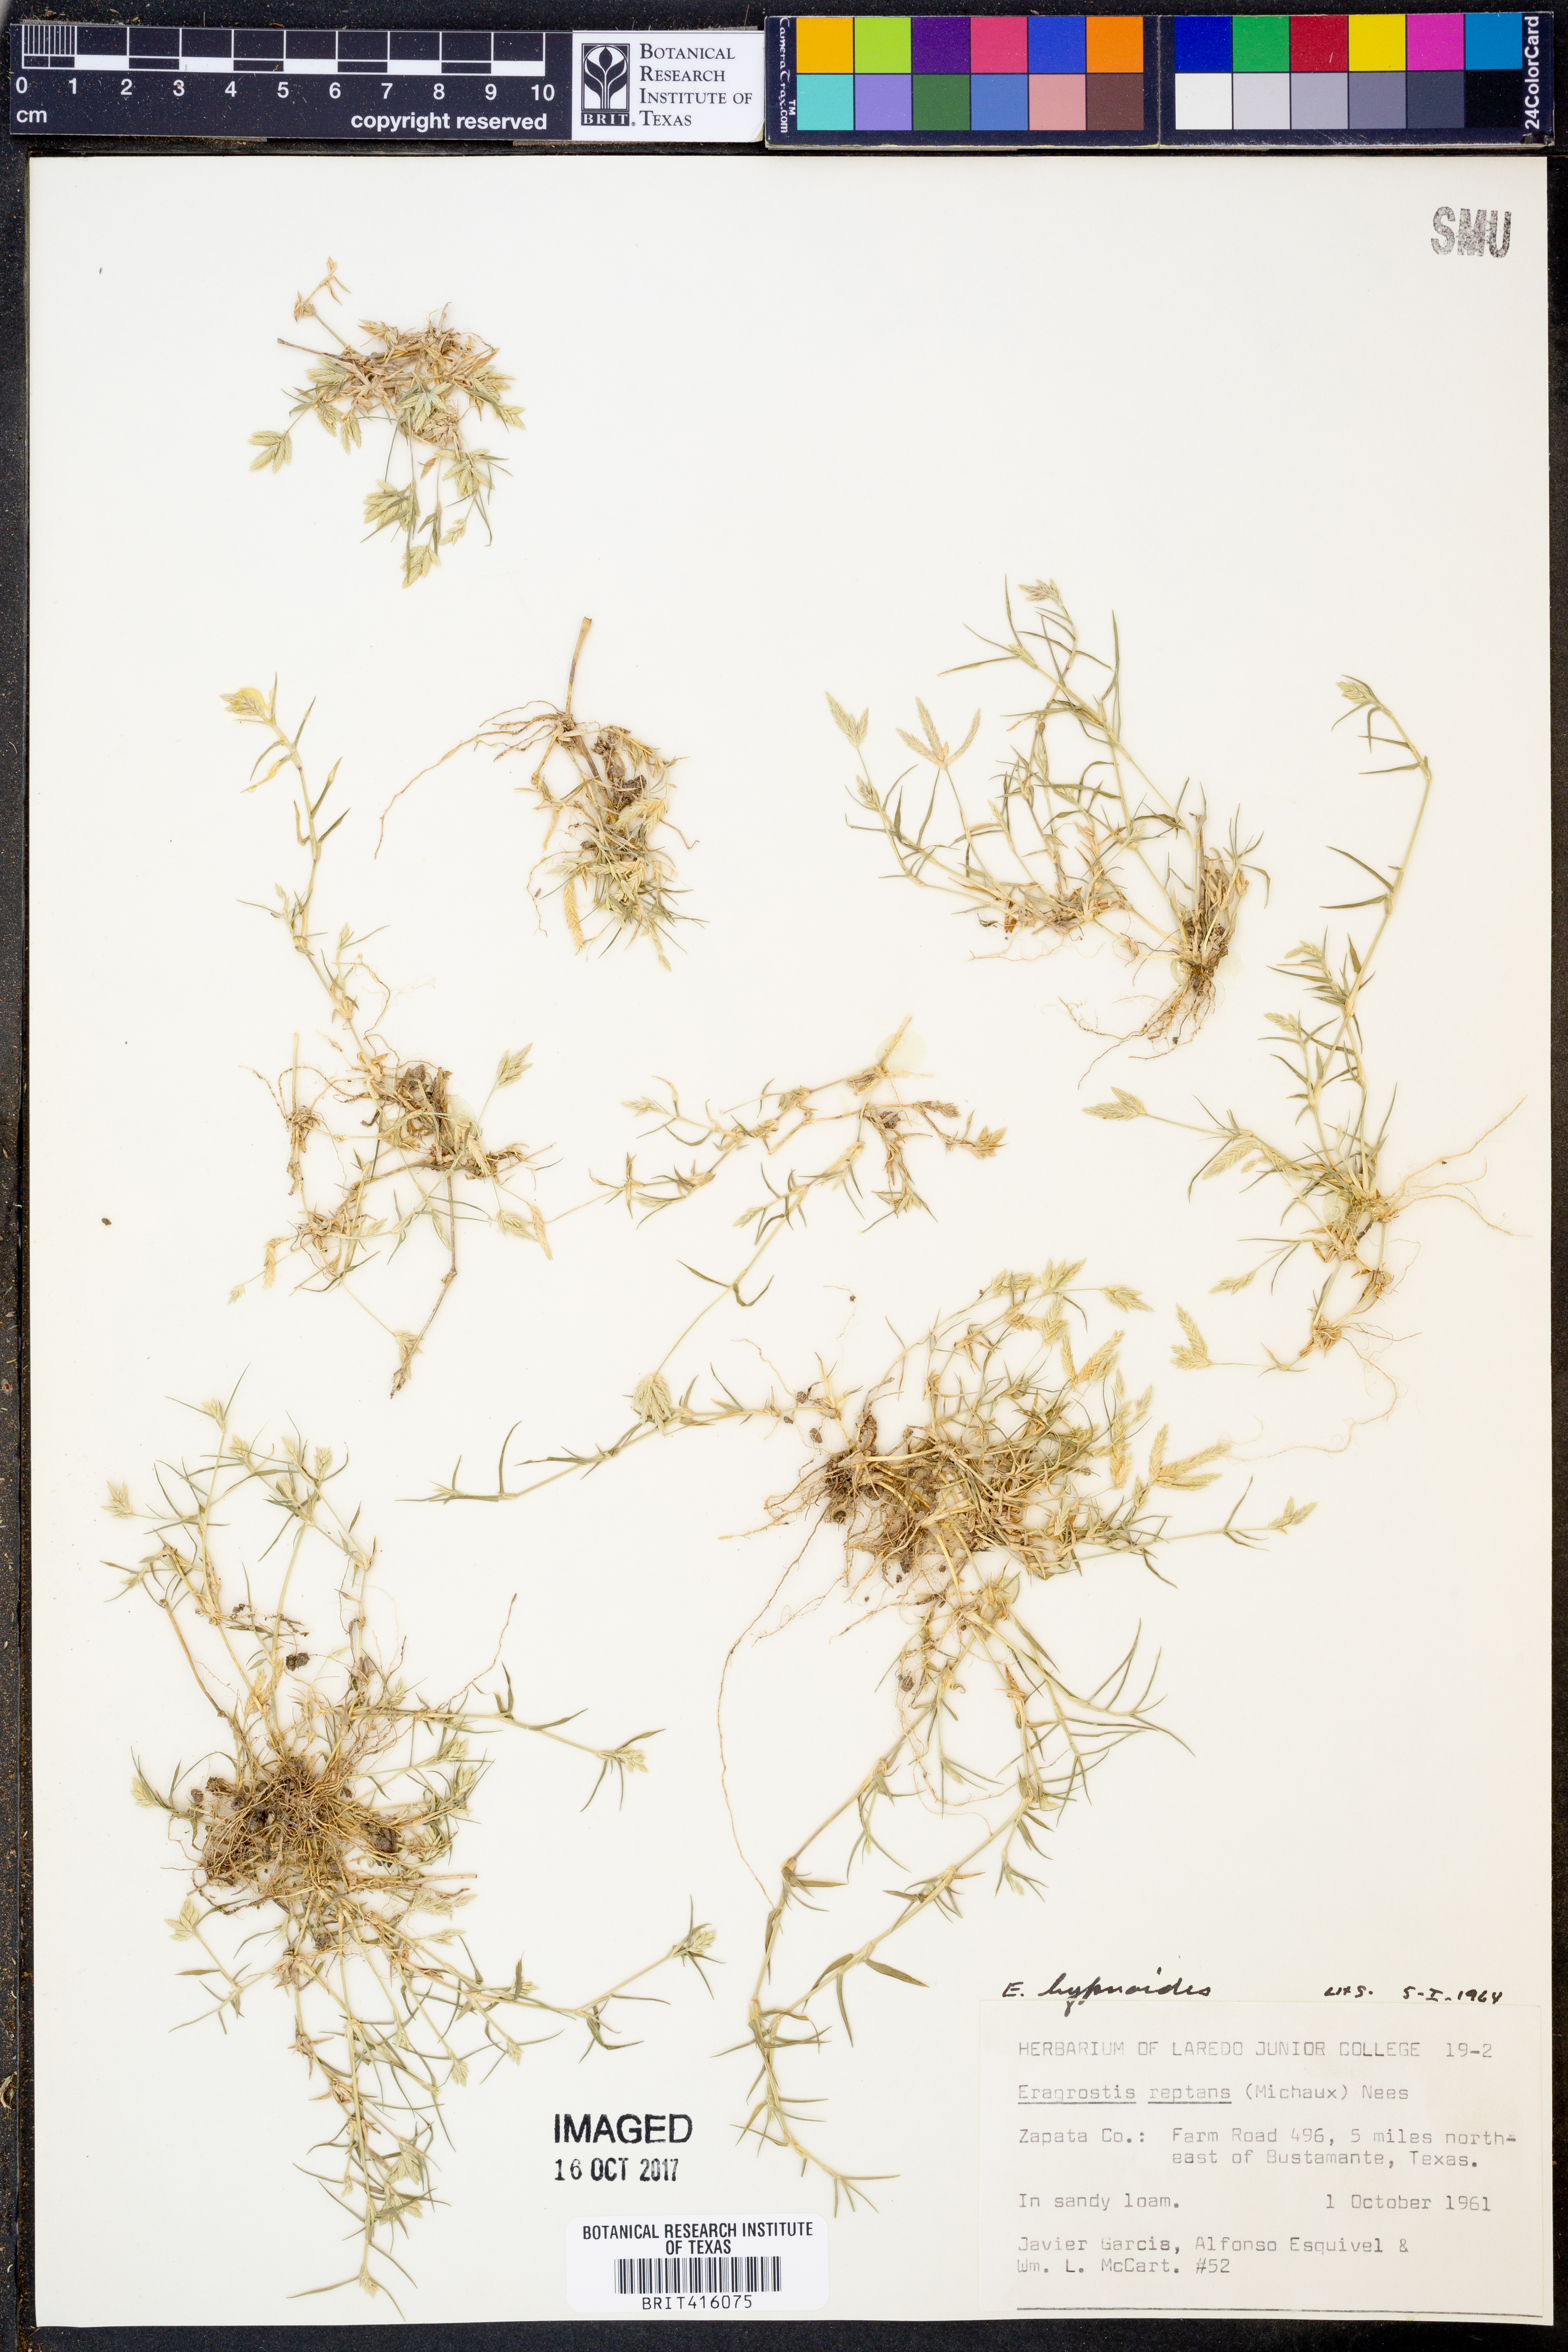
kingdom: Plantae
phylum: Tracheophyta
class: Liliopsida
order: Poales
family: Poaceae
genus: Eragrostis
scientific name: Eragrostis hypnoides
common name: Creeping love grass
